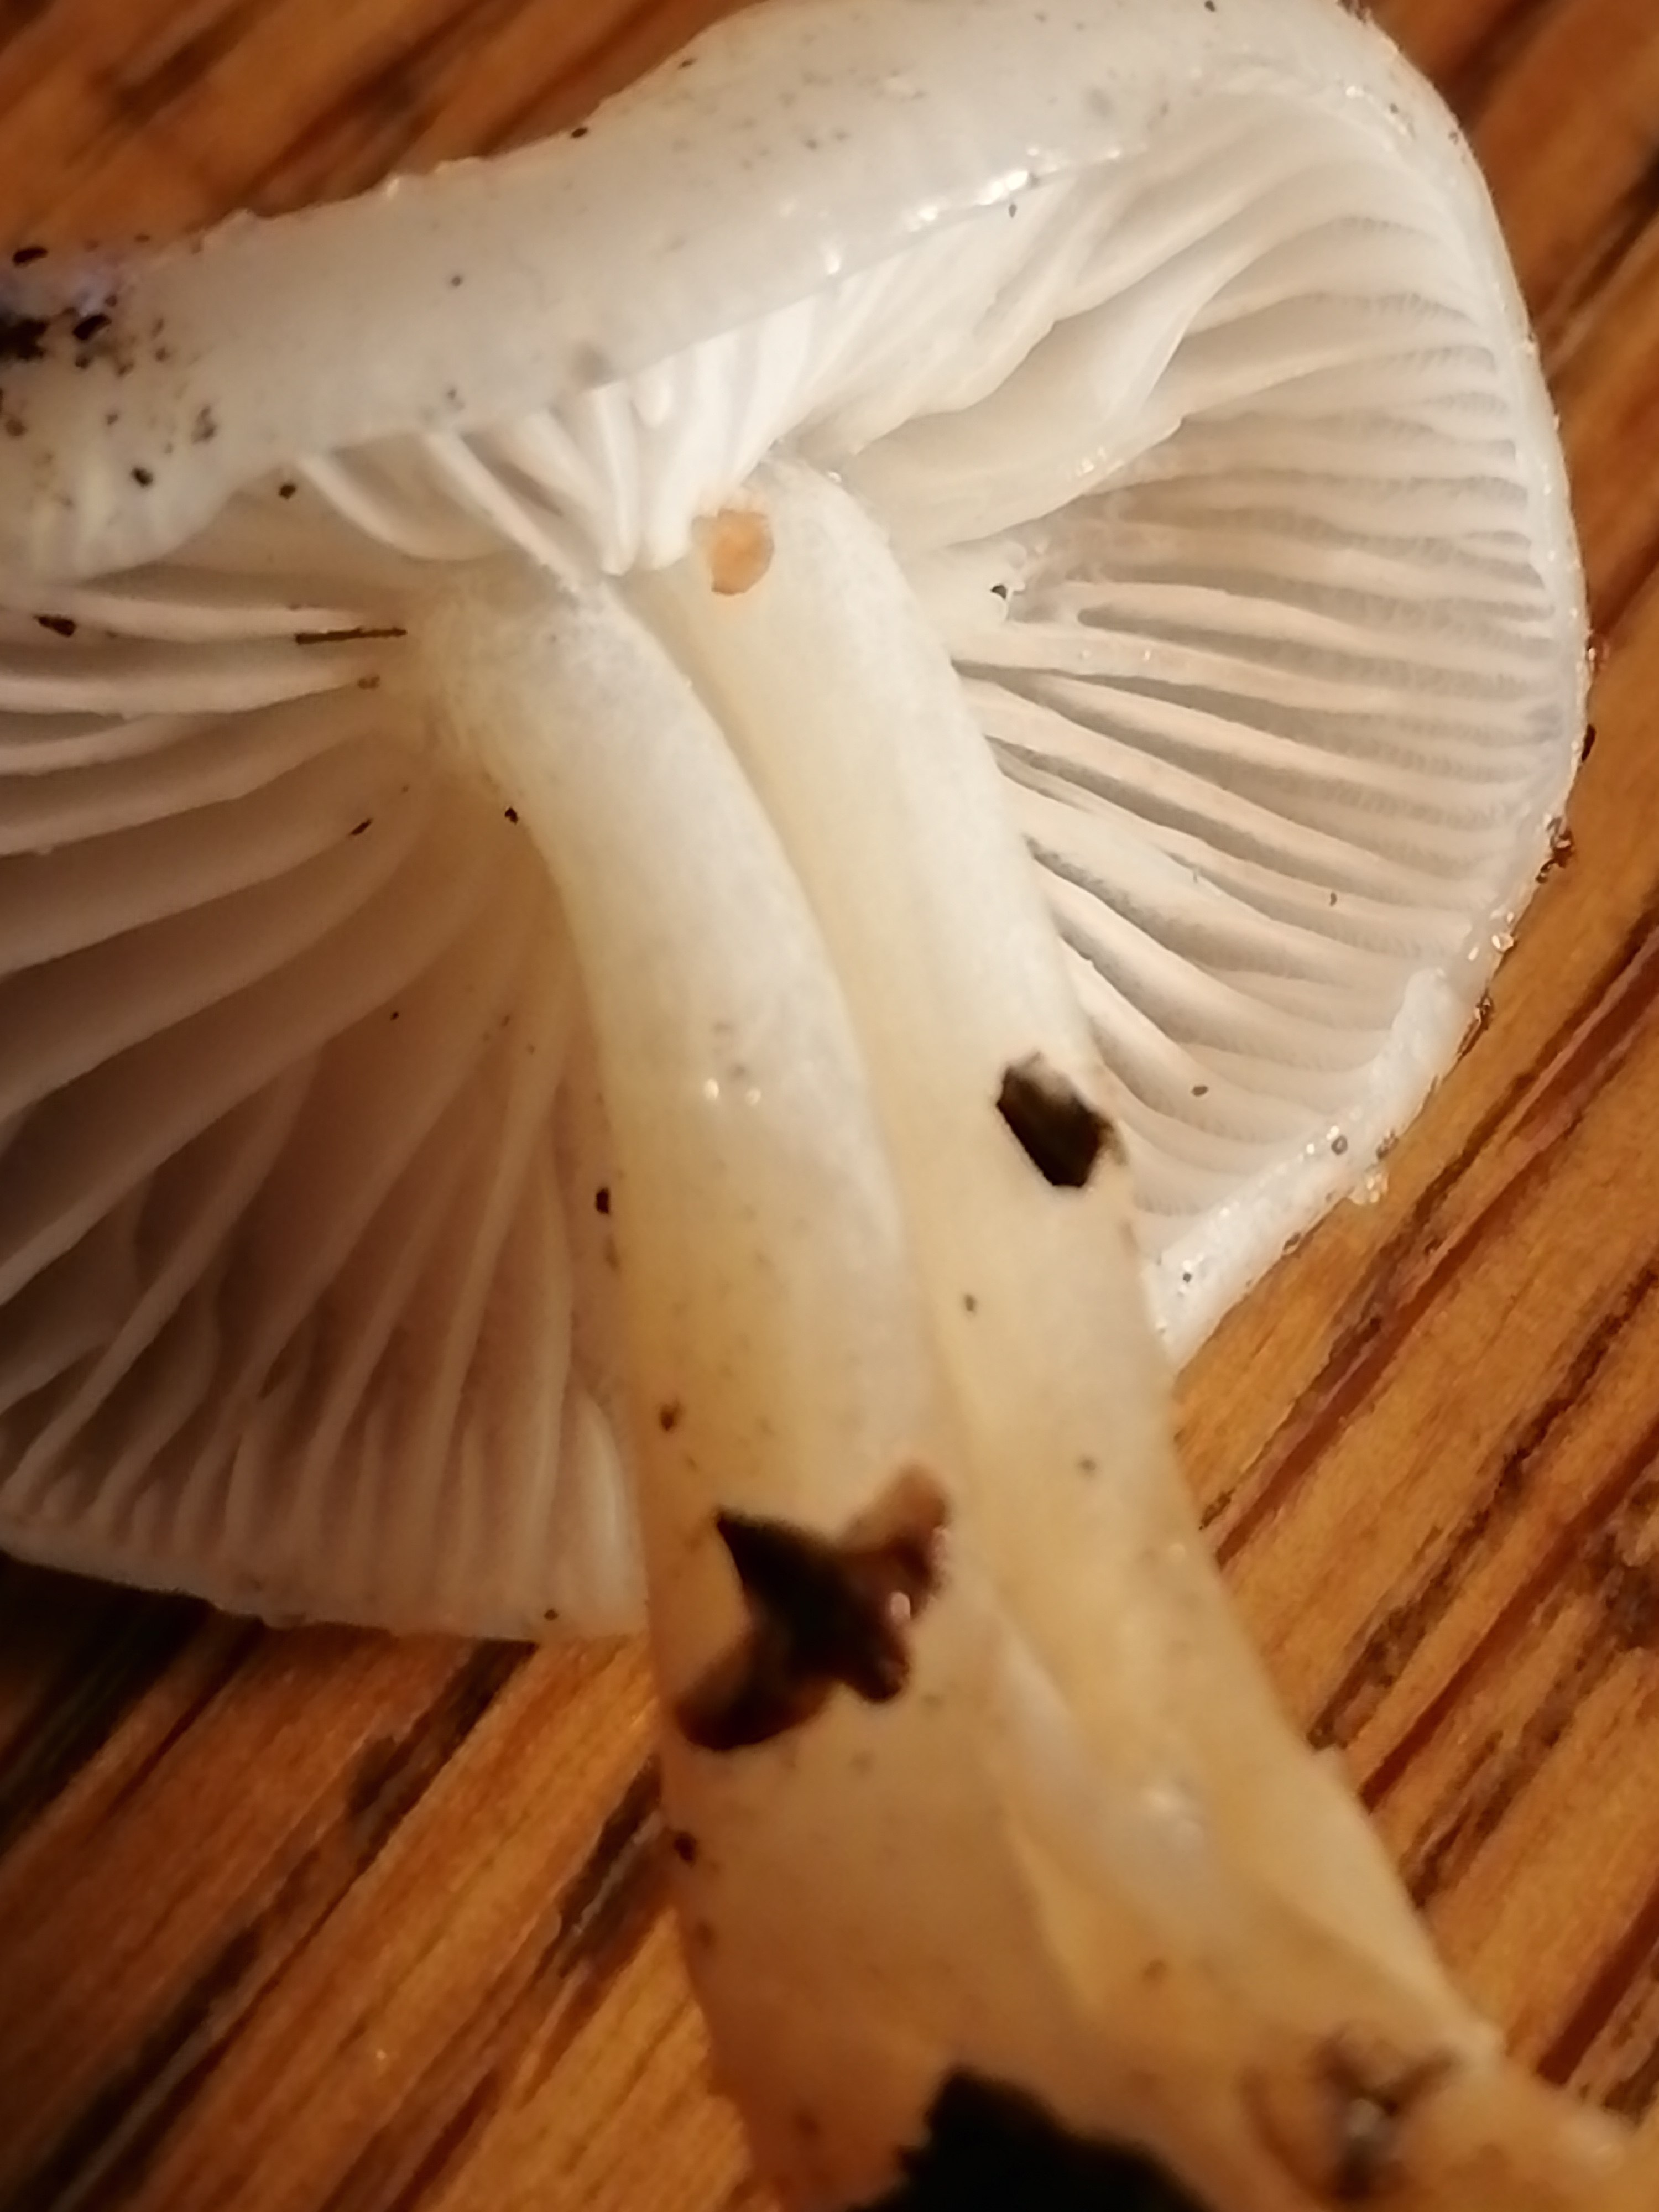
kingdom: Fungi
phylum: Basidiomycota
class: Agaricomycetes
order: Agaricales
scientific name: Agaricales
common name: champignonordenen
